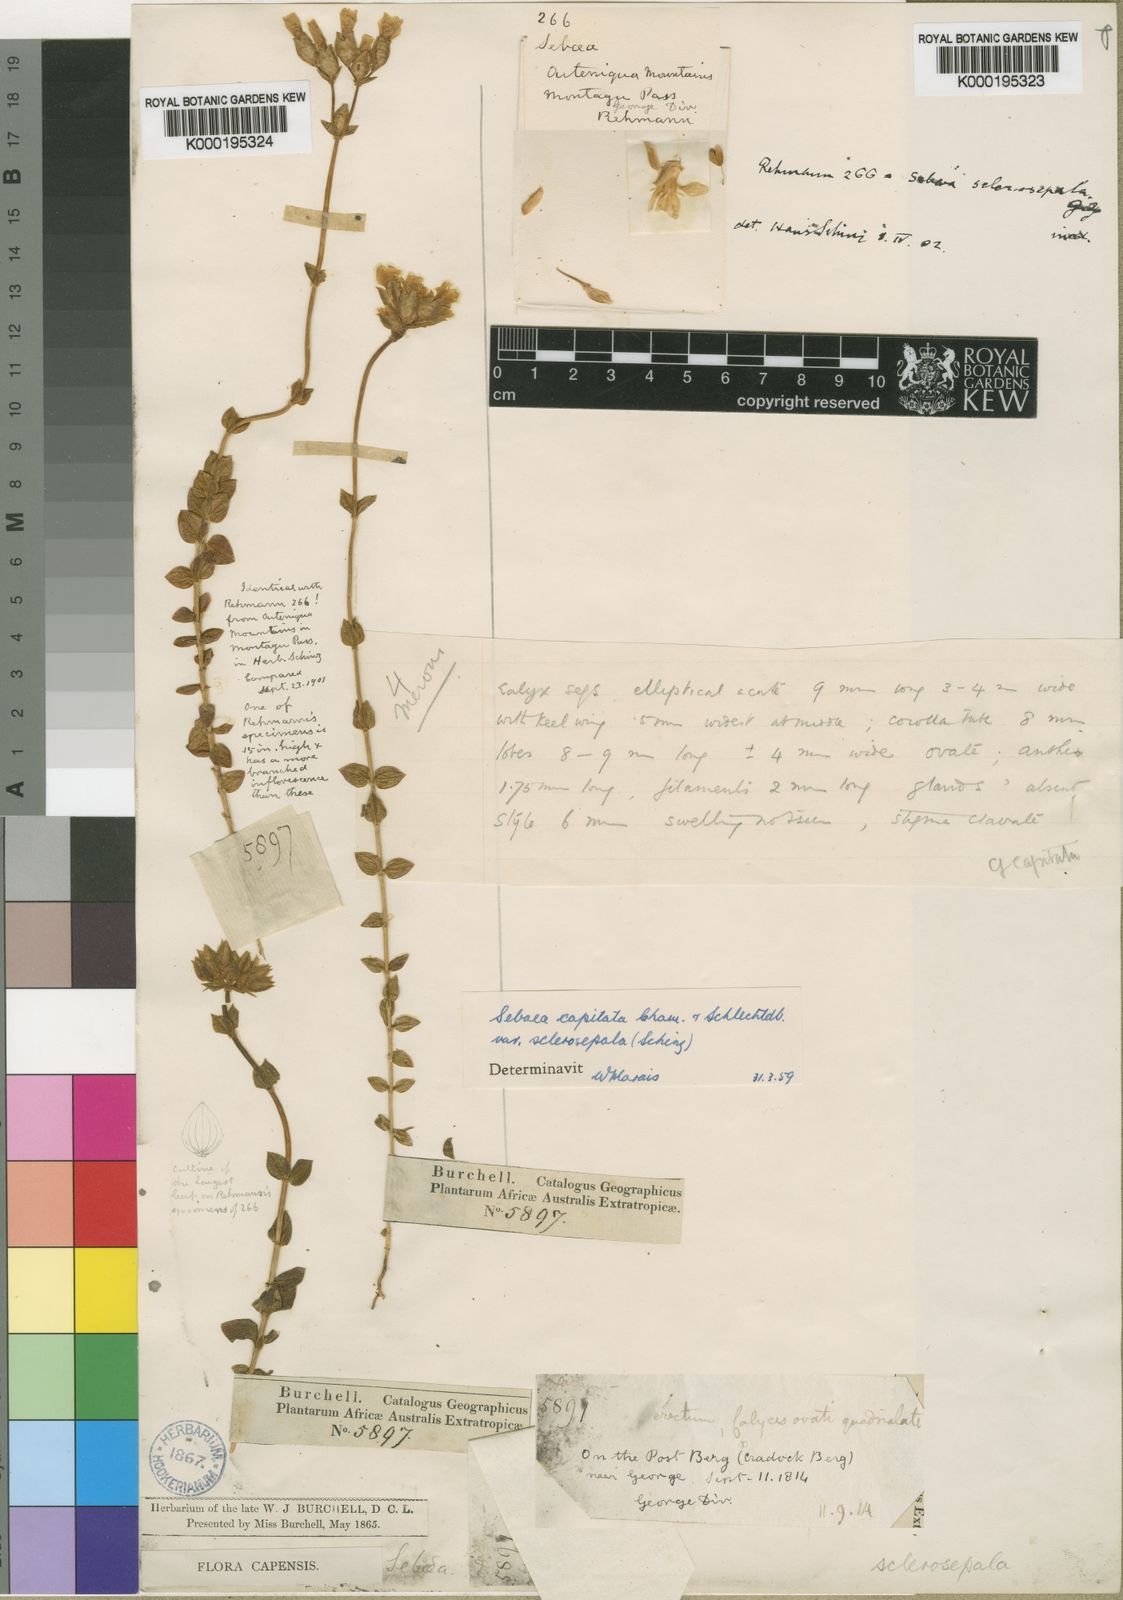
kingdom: Plantae
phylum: Tracheophyta
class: Magnoliopsida
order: Gentianales
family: Gentianaceae
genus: Sebaea
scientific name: Sebaea capitata
